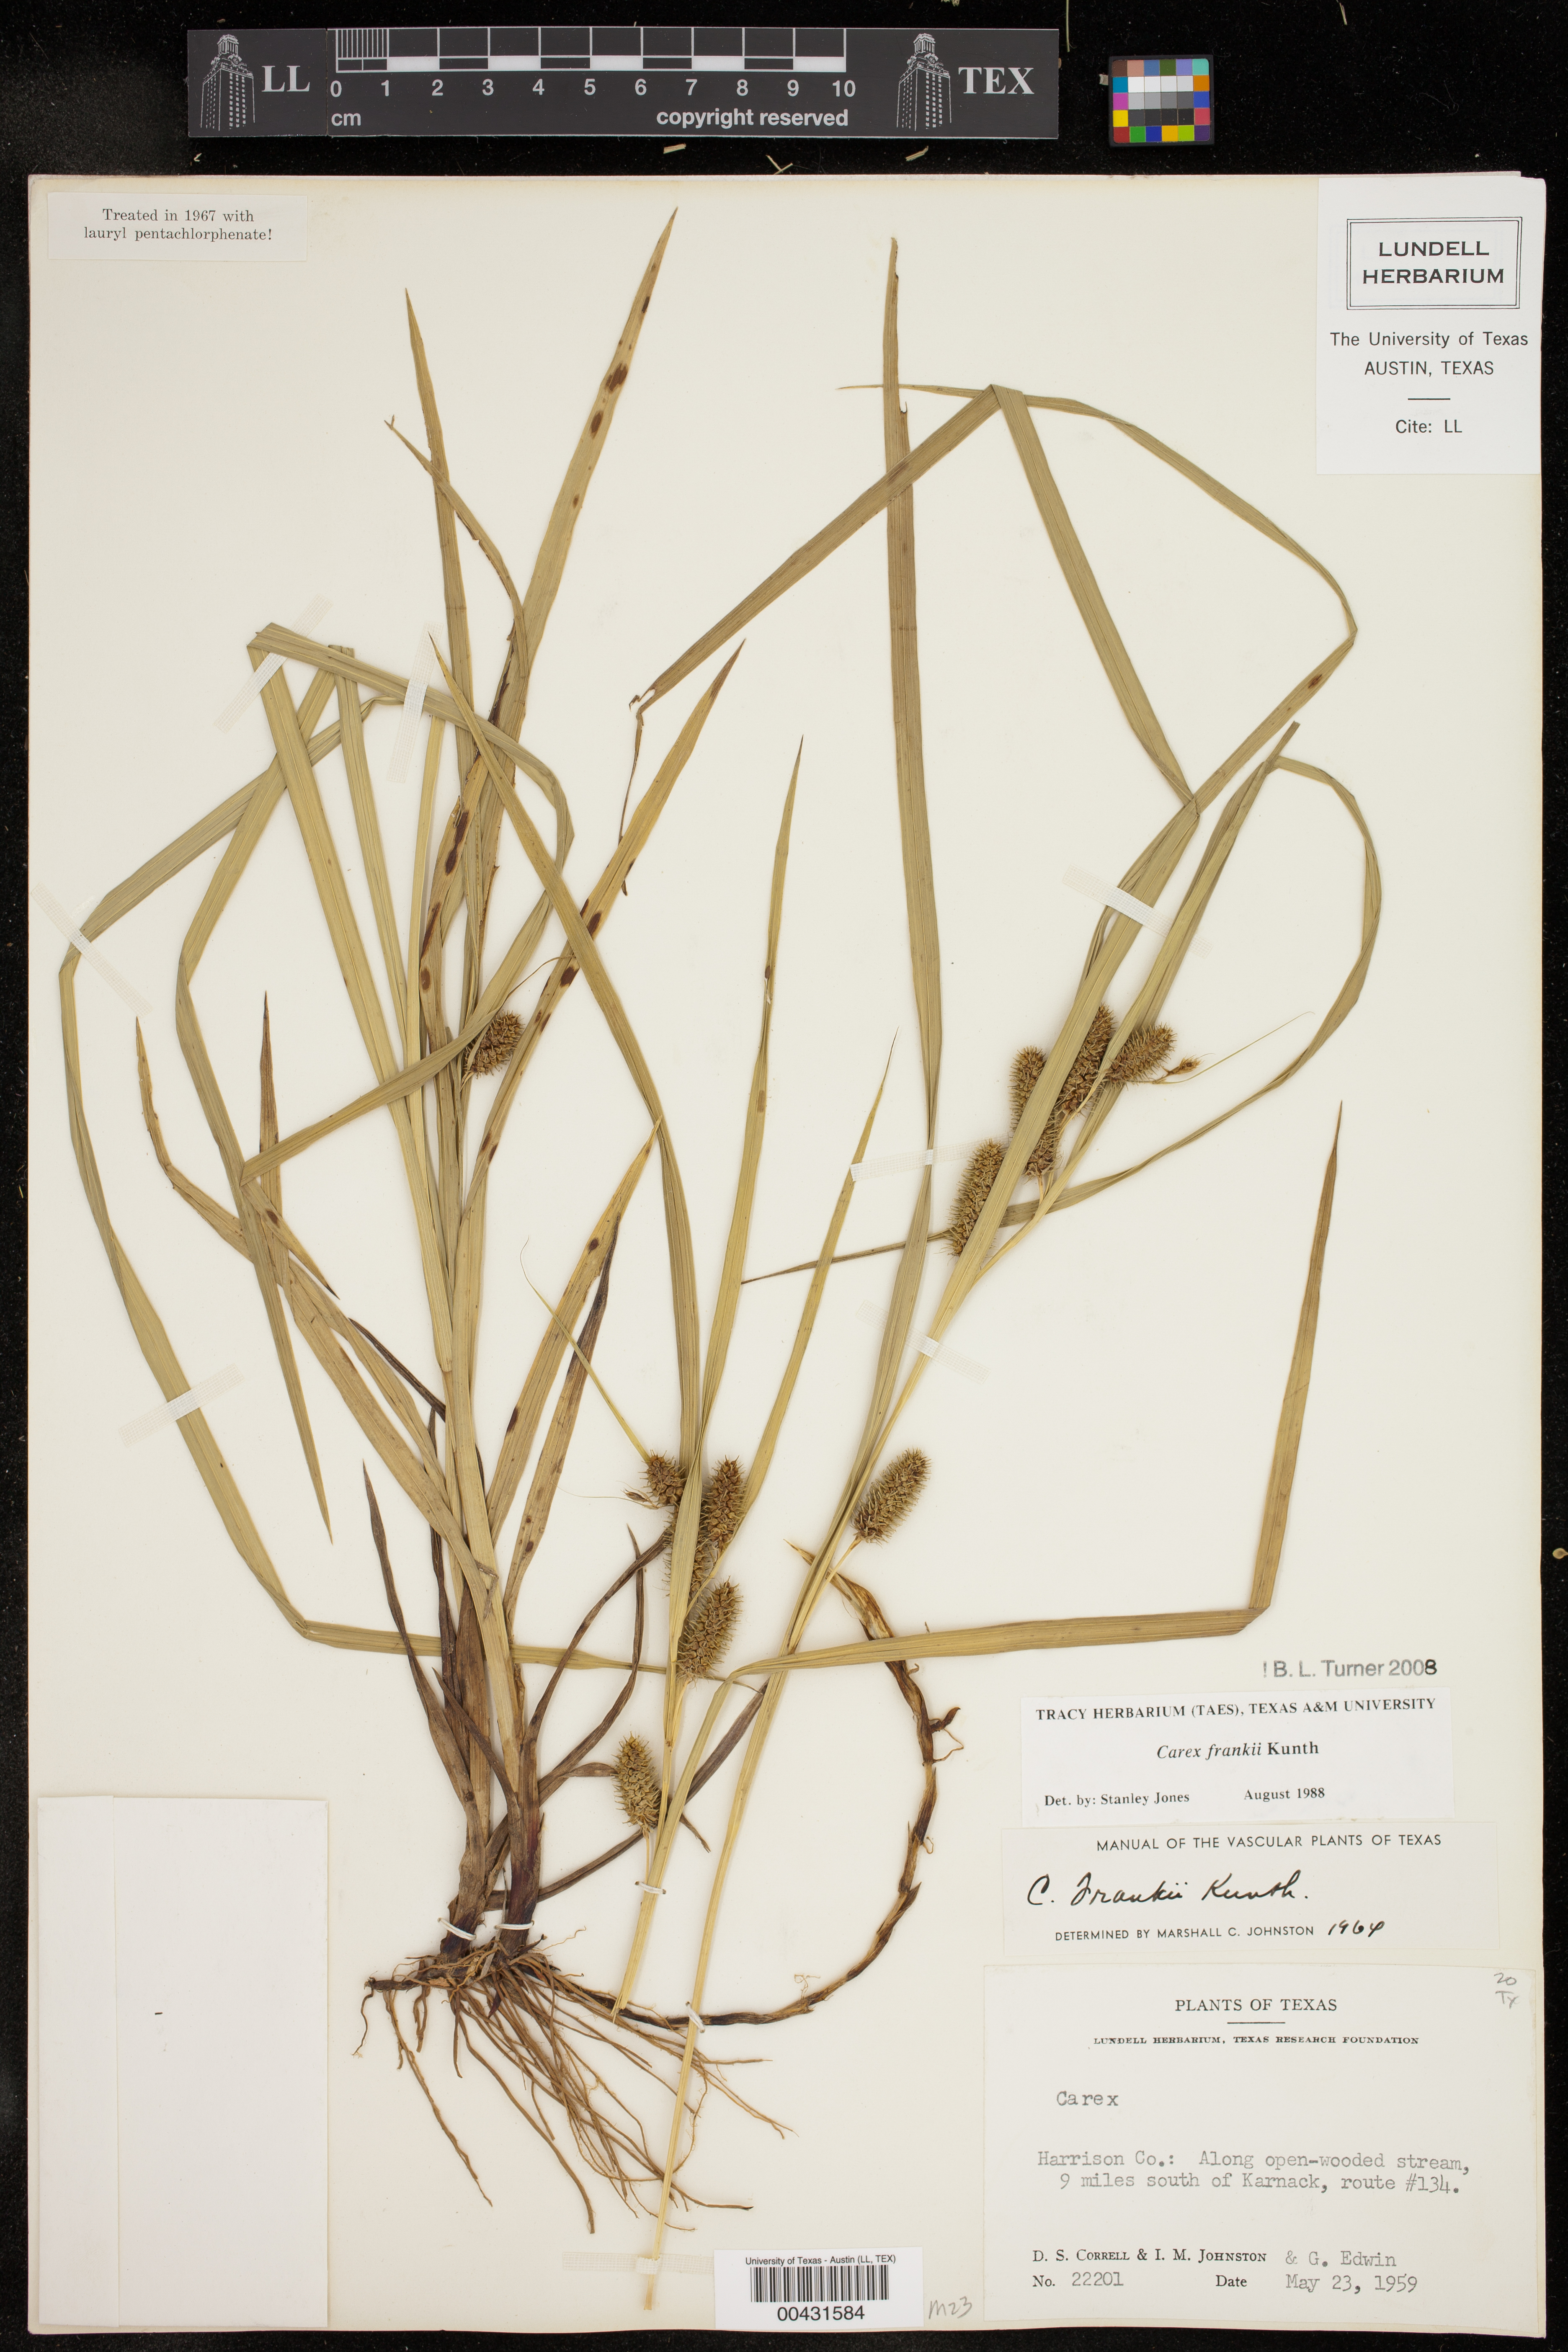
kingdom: Plantae
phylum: Tracheophyta
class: Liliopsida
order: Poales
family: Cyperaceae
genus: Carex
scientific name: Carex frankii
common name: Frank's sedge
